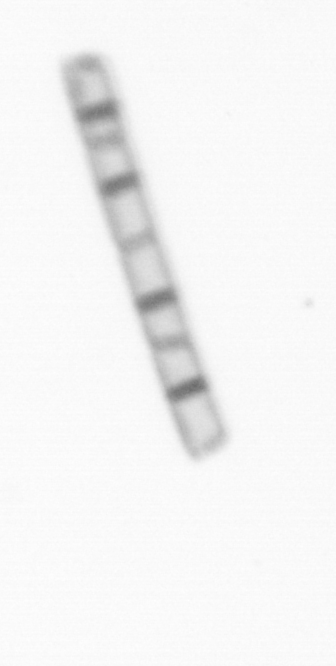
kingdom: Chromista
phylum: Ochrophyta
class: Bacillariophyceae
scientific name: Bacillariophyceae
